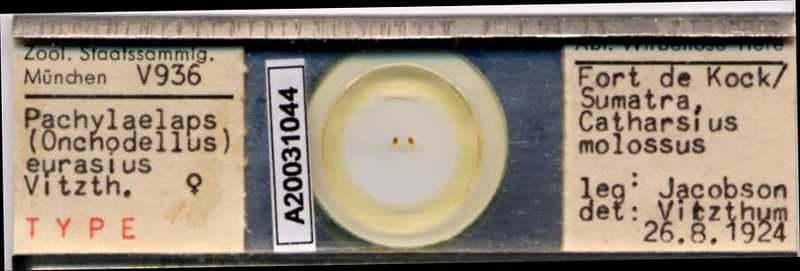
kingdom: Animalia
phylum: Arthropoda
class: Arachnida
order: Mesostigmata
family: Pachylaelapidae
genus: Onchodellus
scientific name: Onchodellus eurasius
